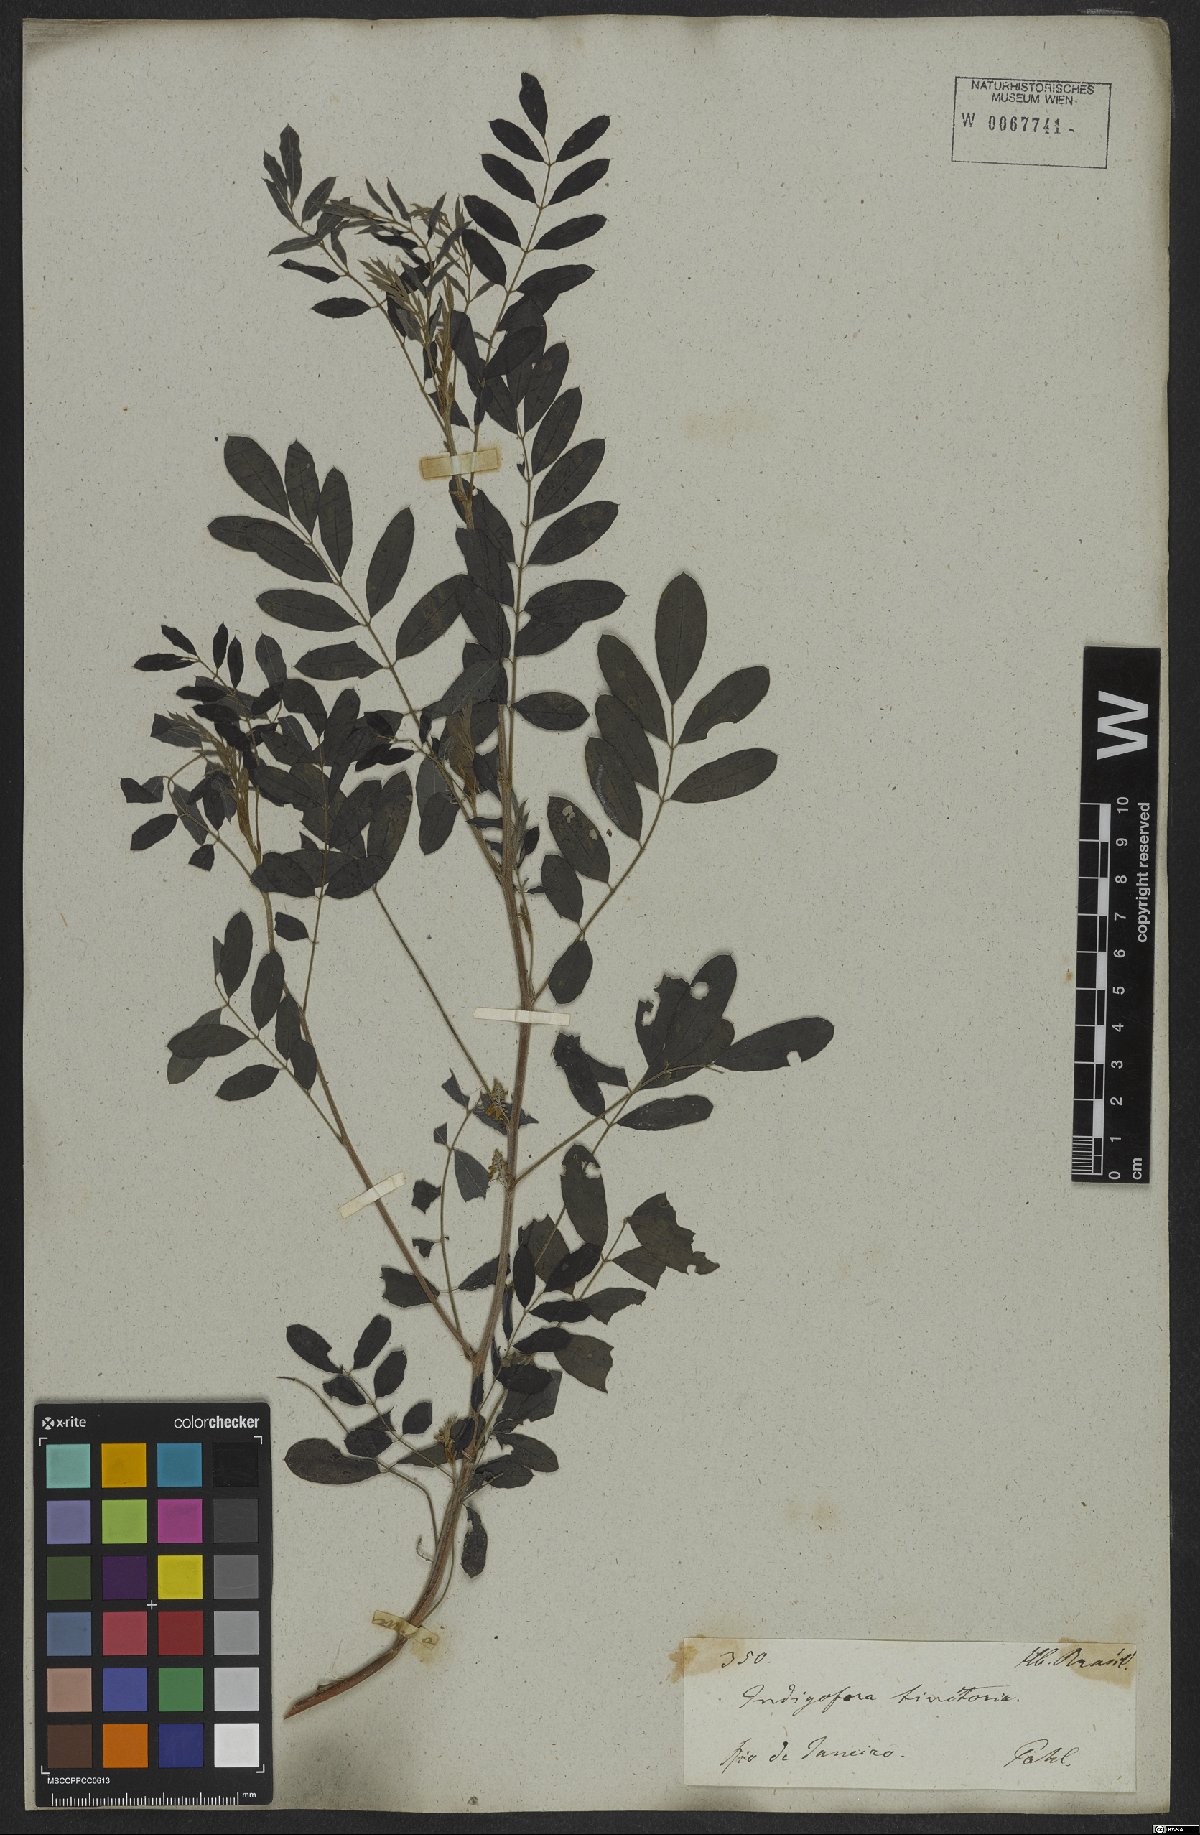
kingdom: Plantae
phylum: Tracheophyta
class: Magnoliopsida
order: Fabales
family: Fabaceae
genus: Indigofera
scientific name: Indigofera tinctoria
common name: True indigo
